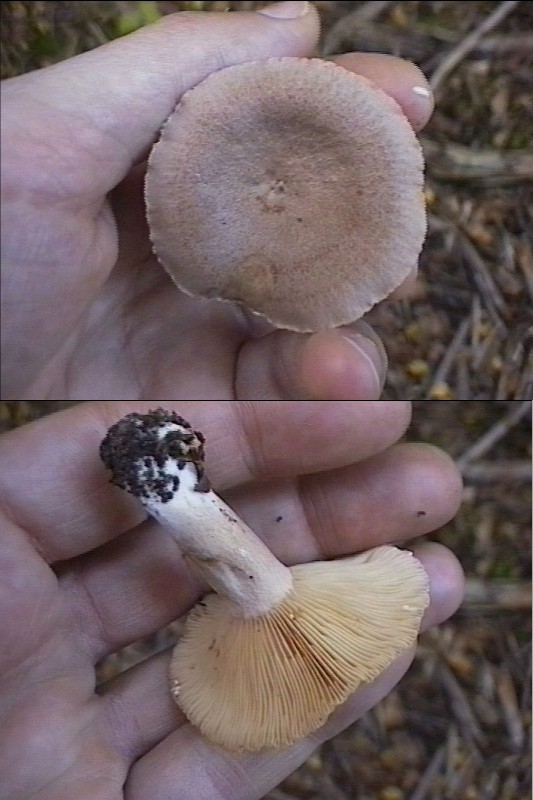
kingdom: Fungi
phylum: Basidiomycota
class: Agaricomycetes
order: Russulales
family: Russulaceae
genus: Lactarius
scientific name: Lactarius glyciosmus
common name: kokos-mælkehat
